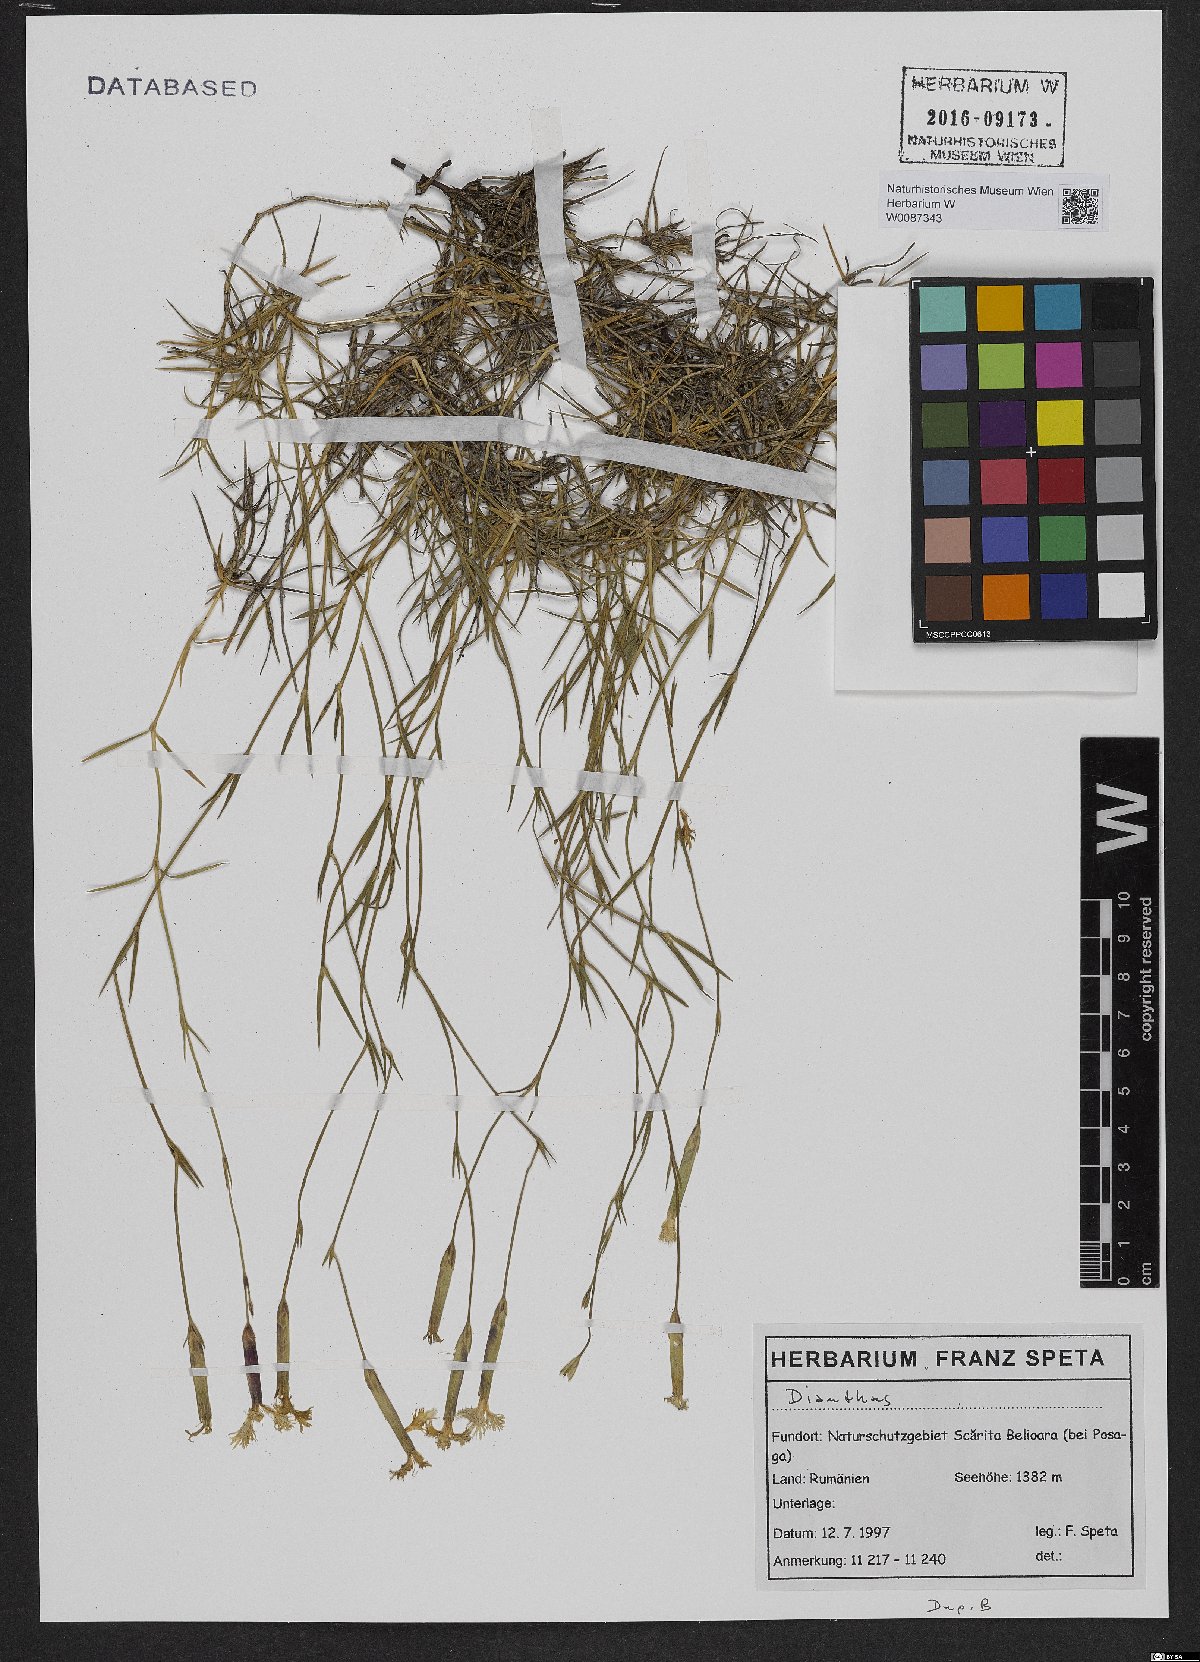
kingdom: Plantae
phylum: Tracheophyta
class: Magnoliopsida
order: Caryophyllales
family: Caryophyllaceae
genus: Dianthus
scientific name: Dianthus
